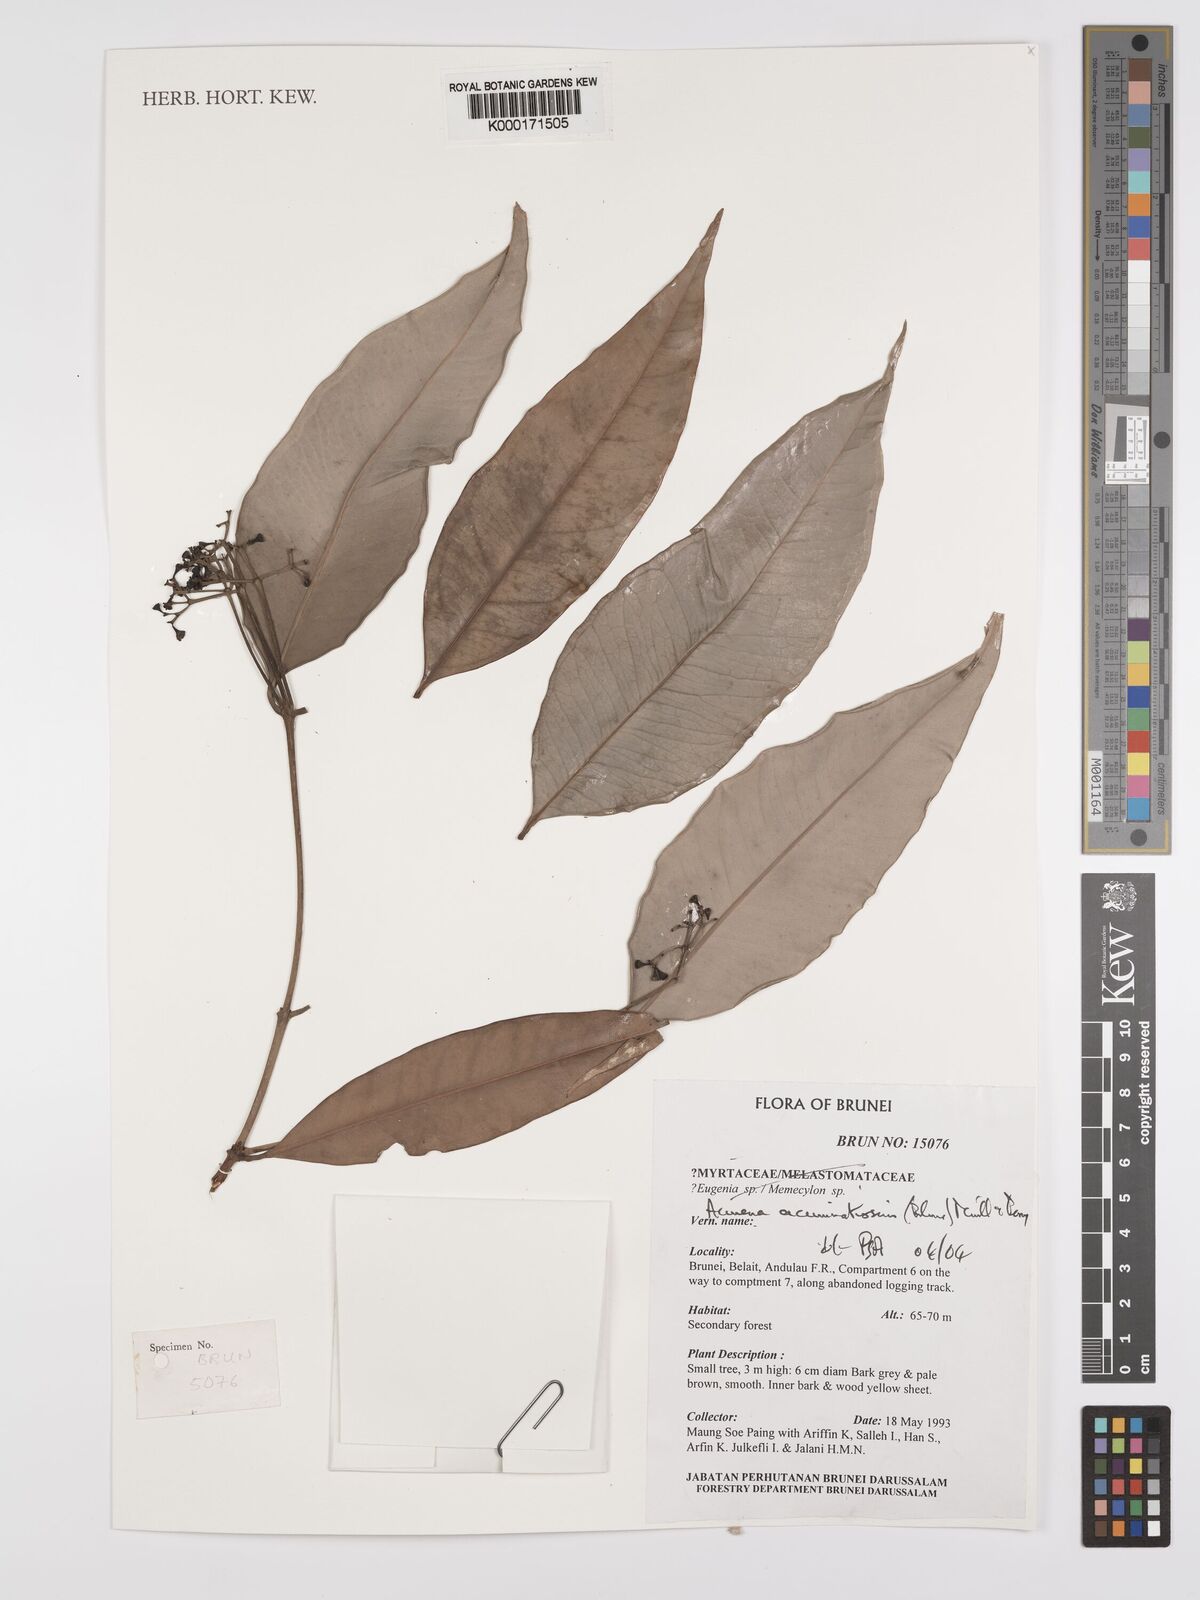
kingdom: Plantae
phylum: Tracheophyta
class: Magnoliopsida
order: Myrtales
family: Myrtaceae
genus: Syzygium
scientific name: Syzygium acuminatissimum
